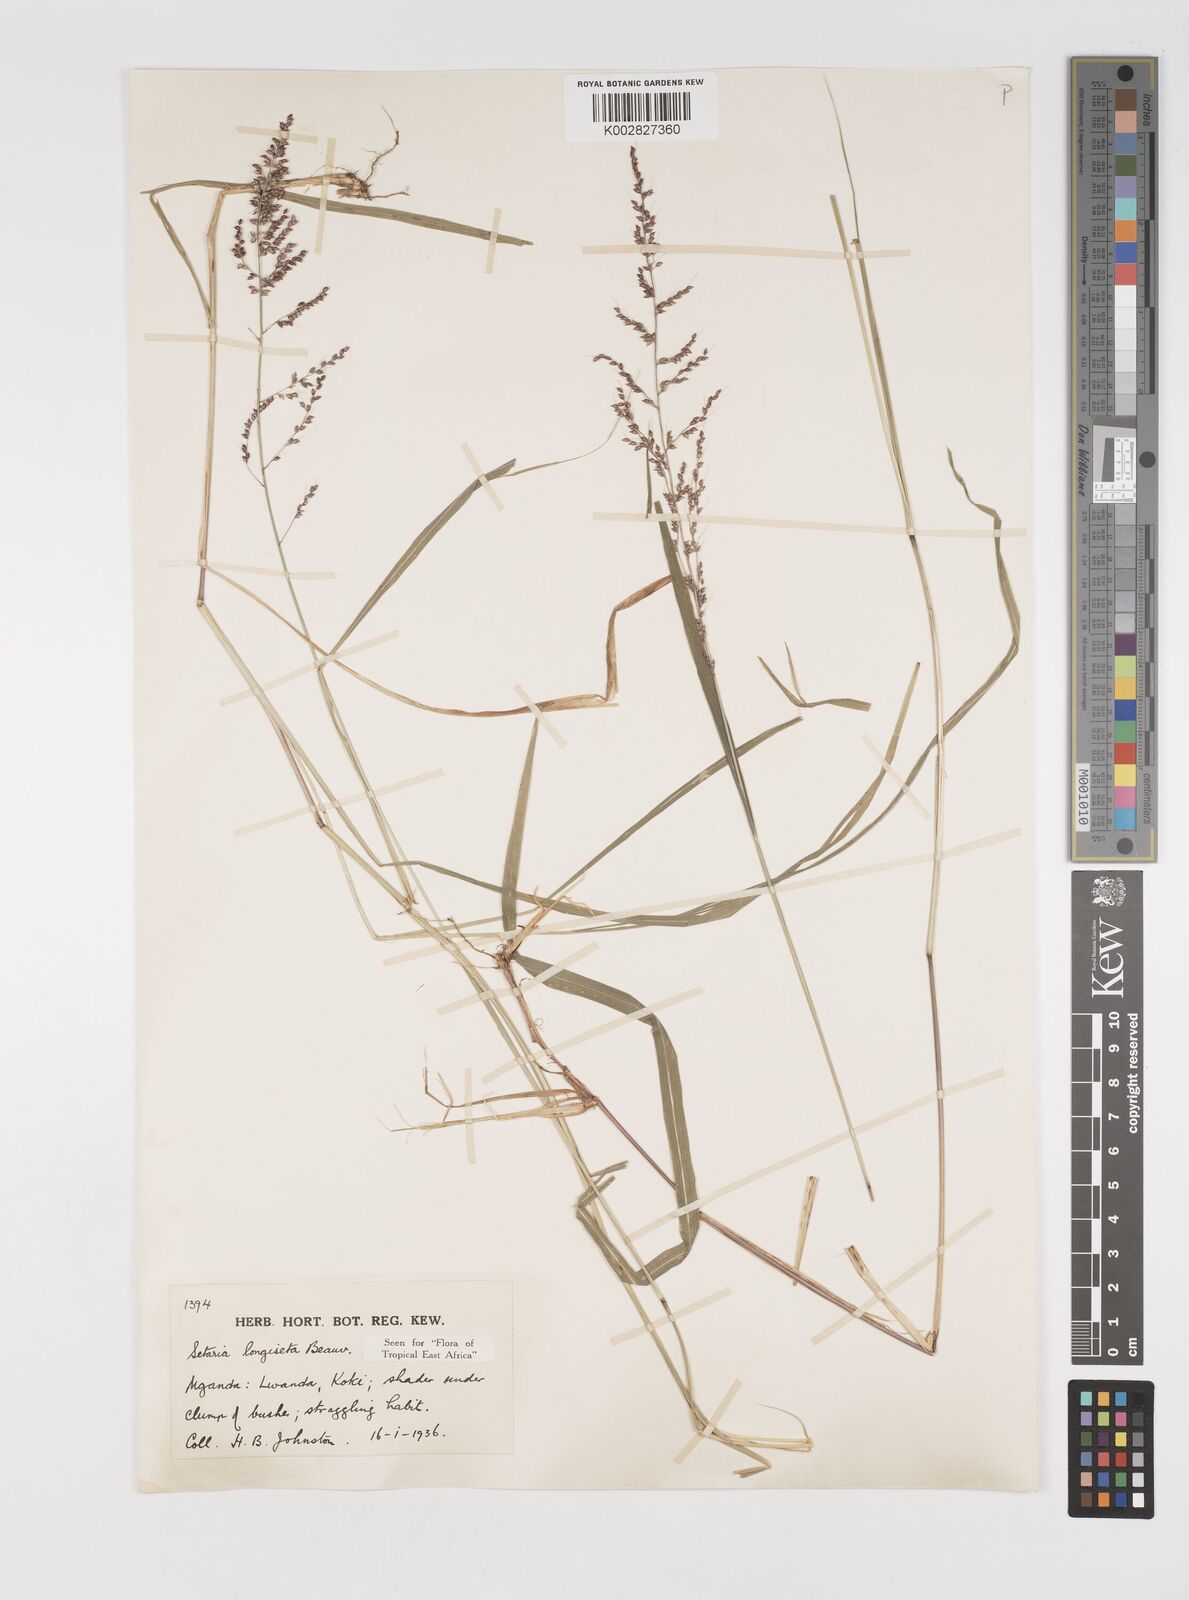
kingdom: Plantae
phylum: Tracheophyta
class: Liliopsida
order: Poales
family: Poaceae
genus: Setaria
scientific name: Setaria longiseta
